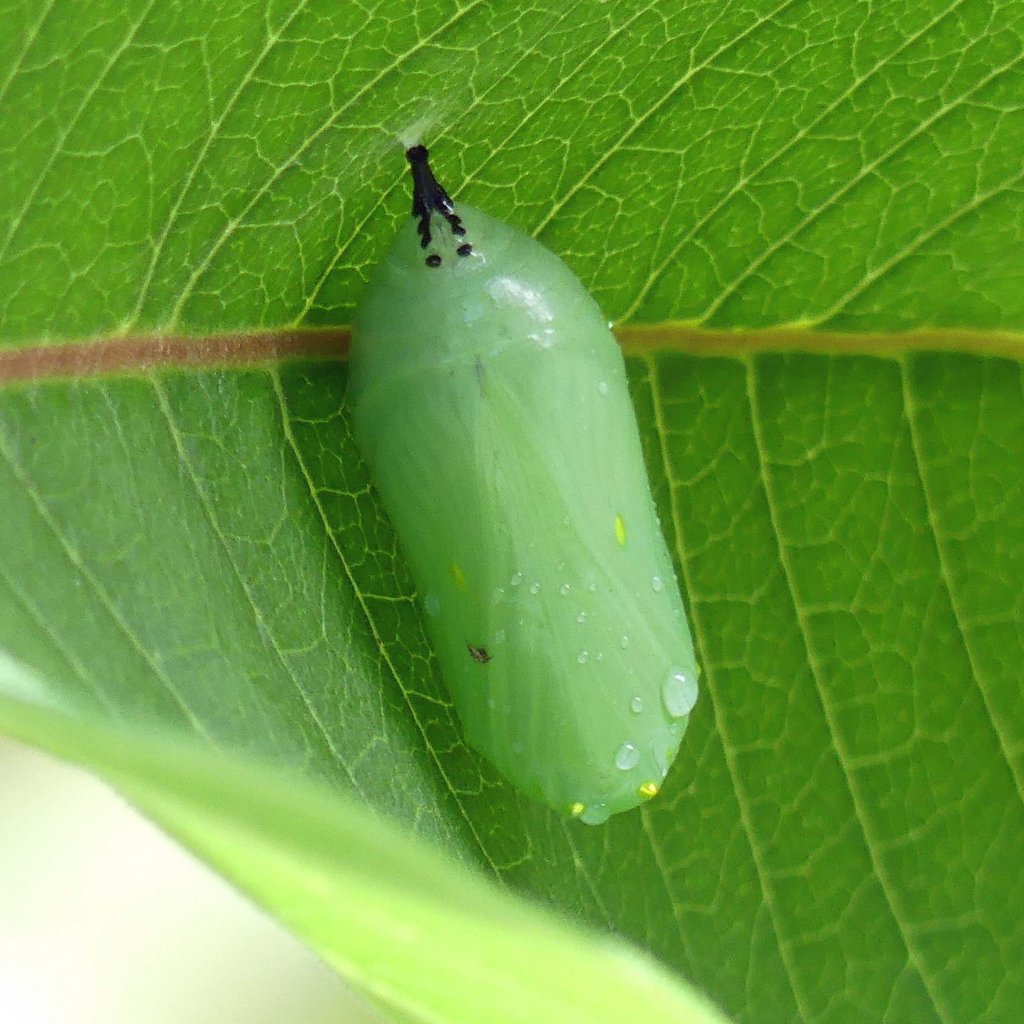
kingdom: Animalia
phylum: Arthropoda
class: Insecta
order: Lepidoptera
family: Nymphalidae
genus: Danaus
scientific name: Danaus plexippus
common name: Monarch
